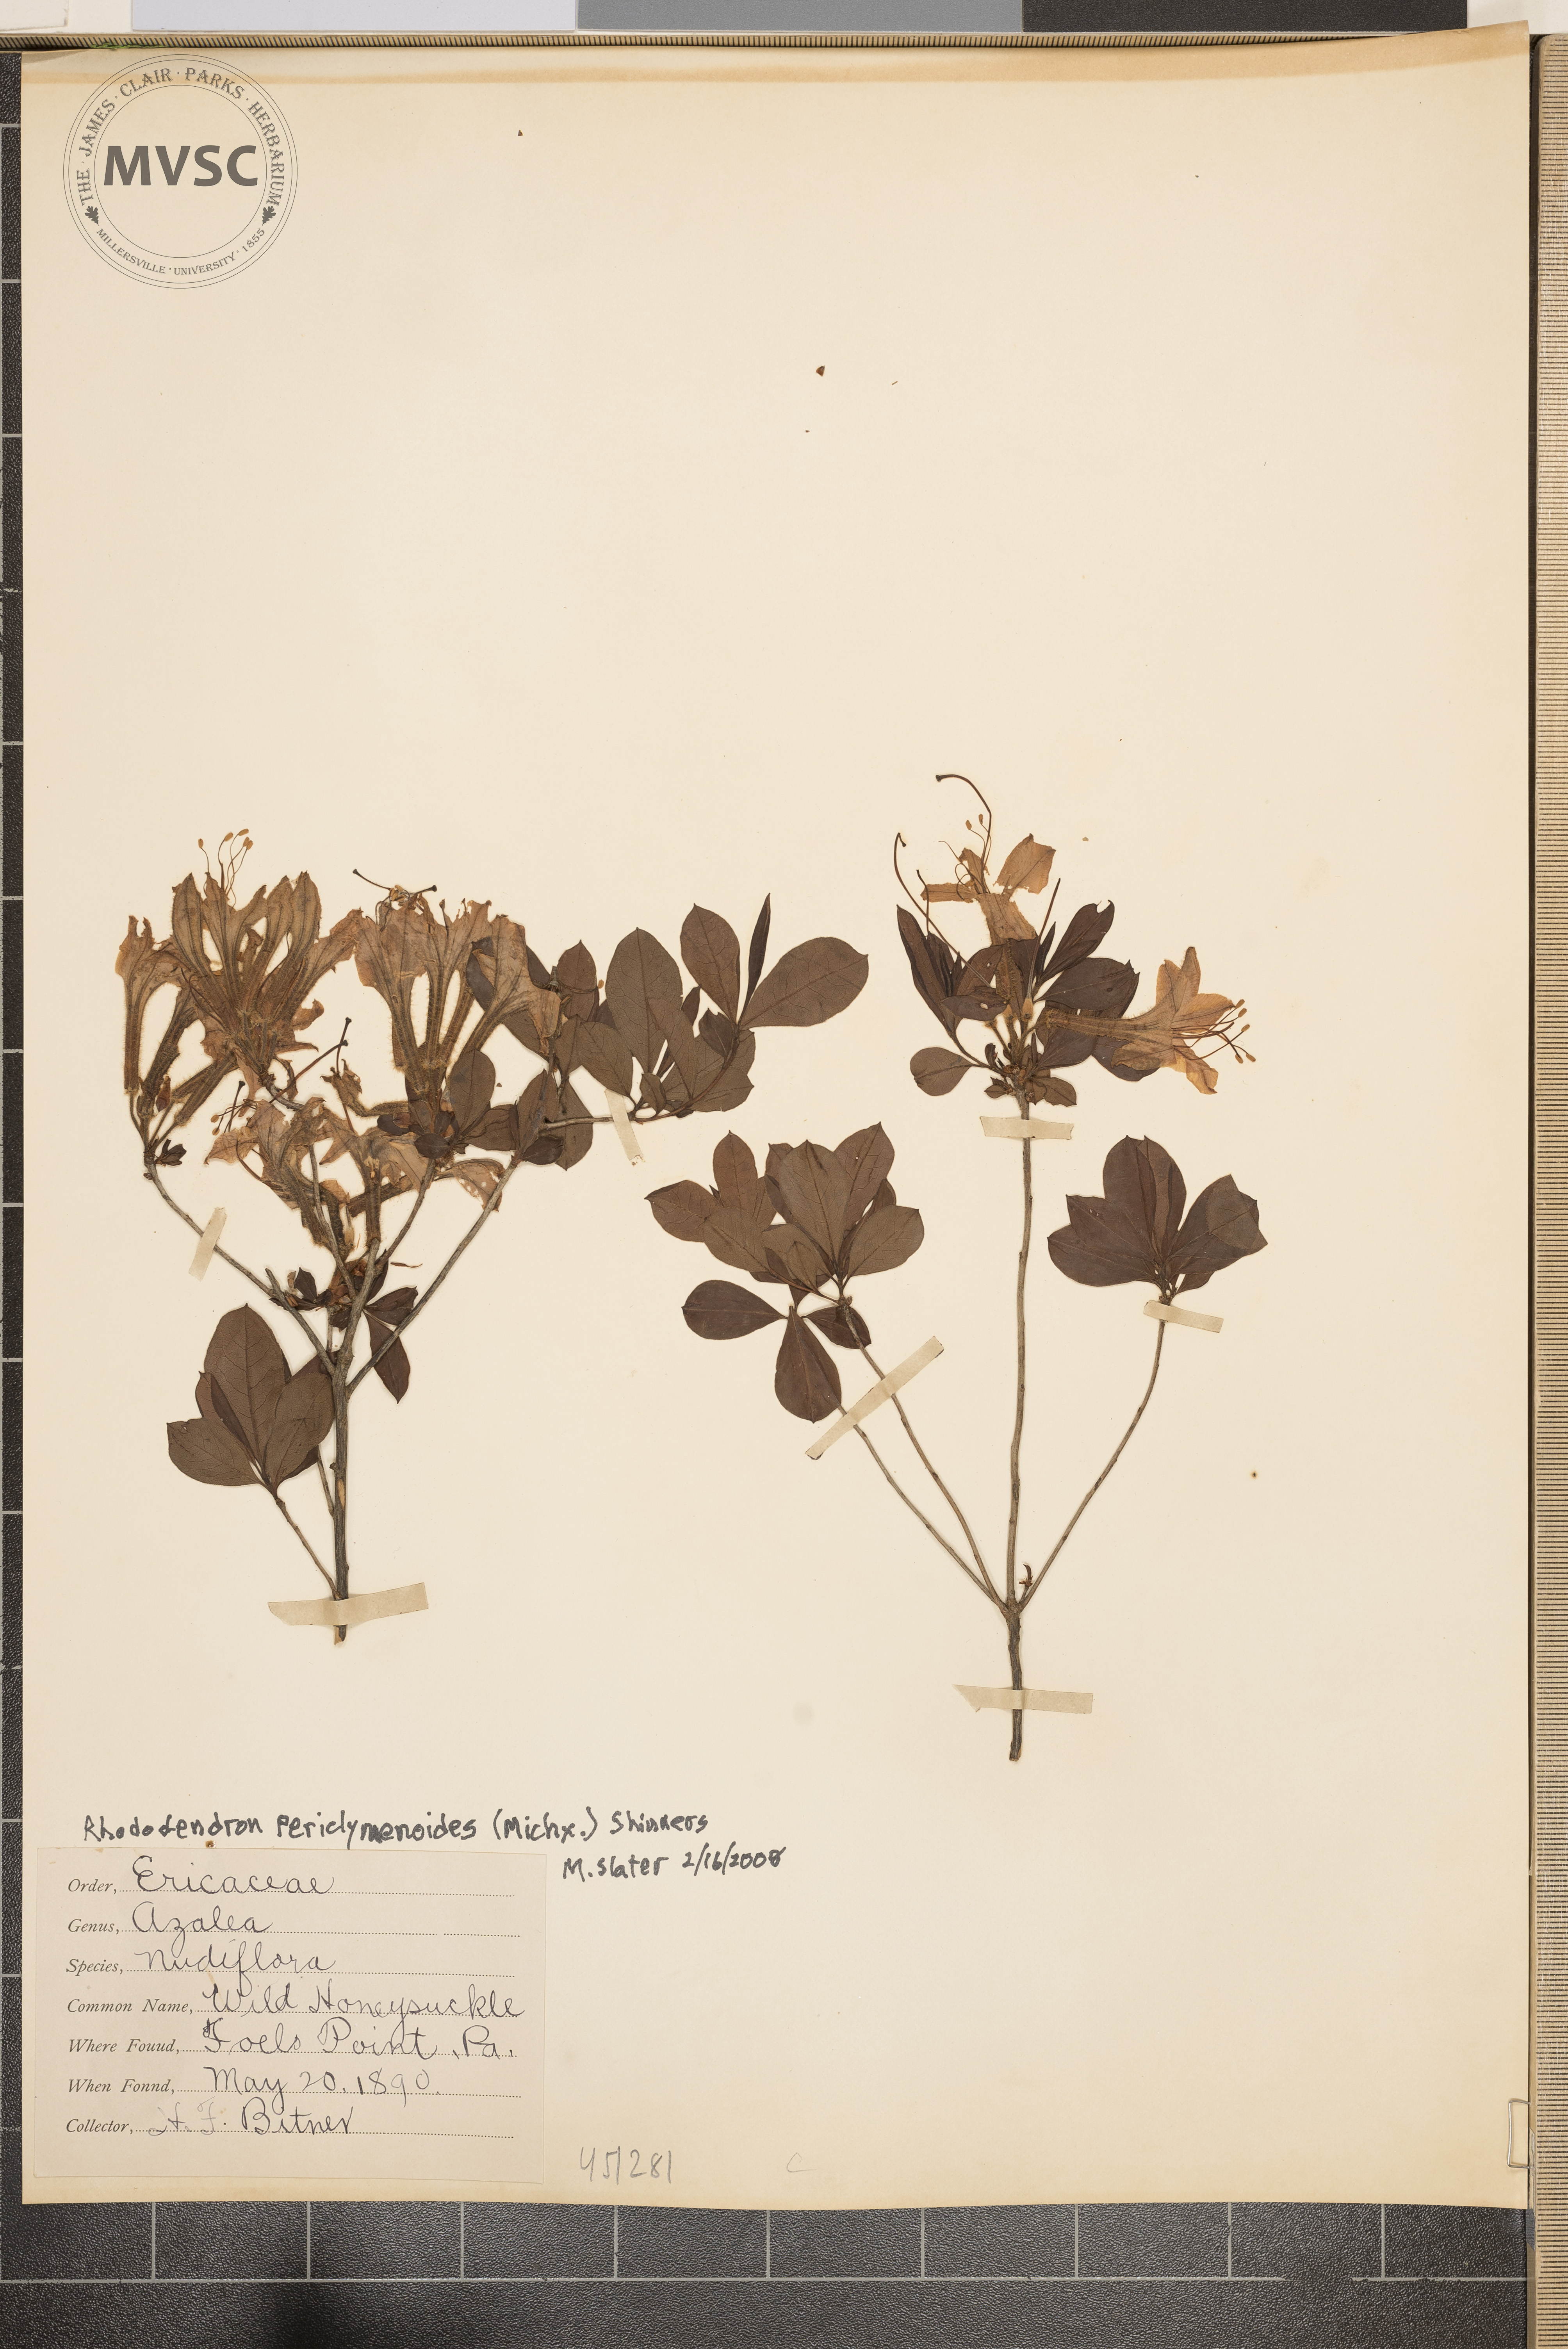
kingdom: Plantae
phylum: Tracheophyta
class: Magnoliopsida
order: Ericales
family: Ericaceae
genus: Rhododendron
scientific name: Rhododendron periclymenoides
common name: Wild honeysuckle
